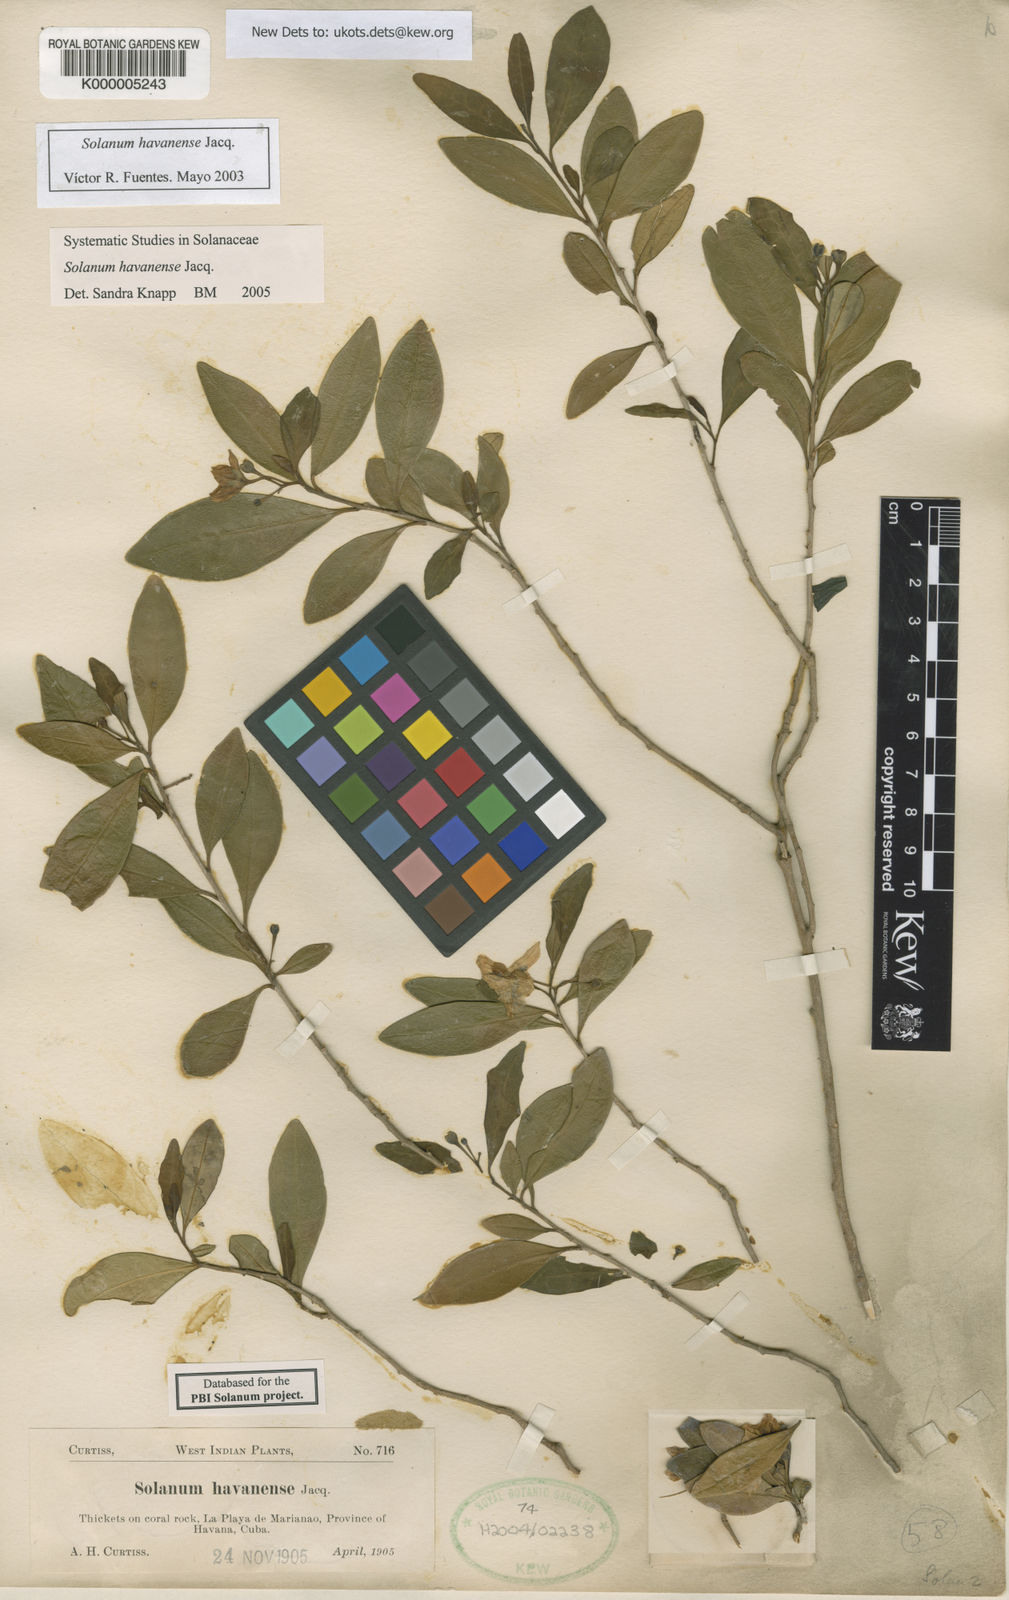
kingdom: Plantae
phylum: Tracheophyta
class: Magnoliopsida
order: Solanales
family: Solanaceae
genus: Solanum
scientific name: Solanum havanense
